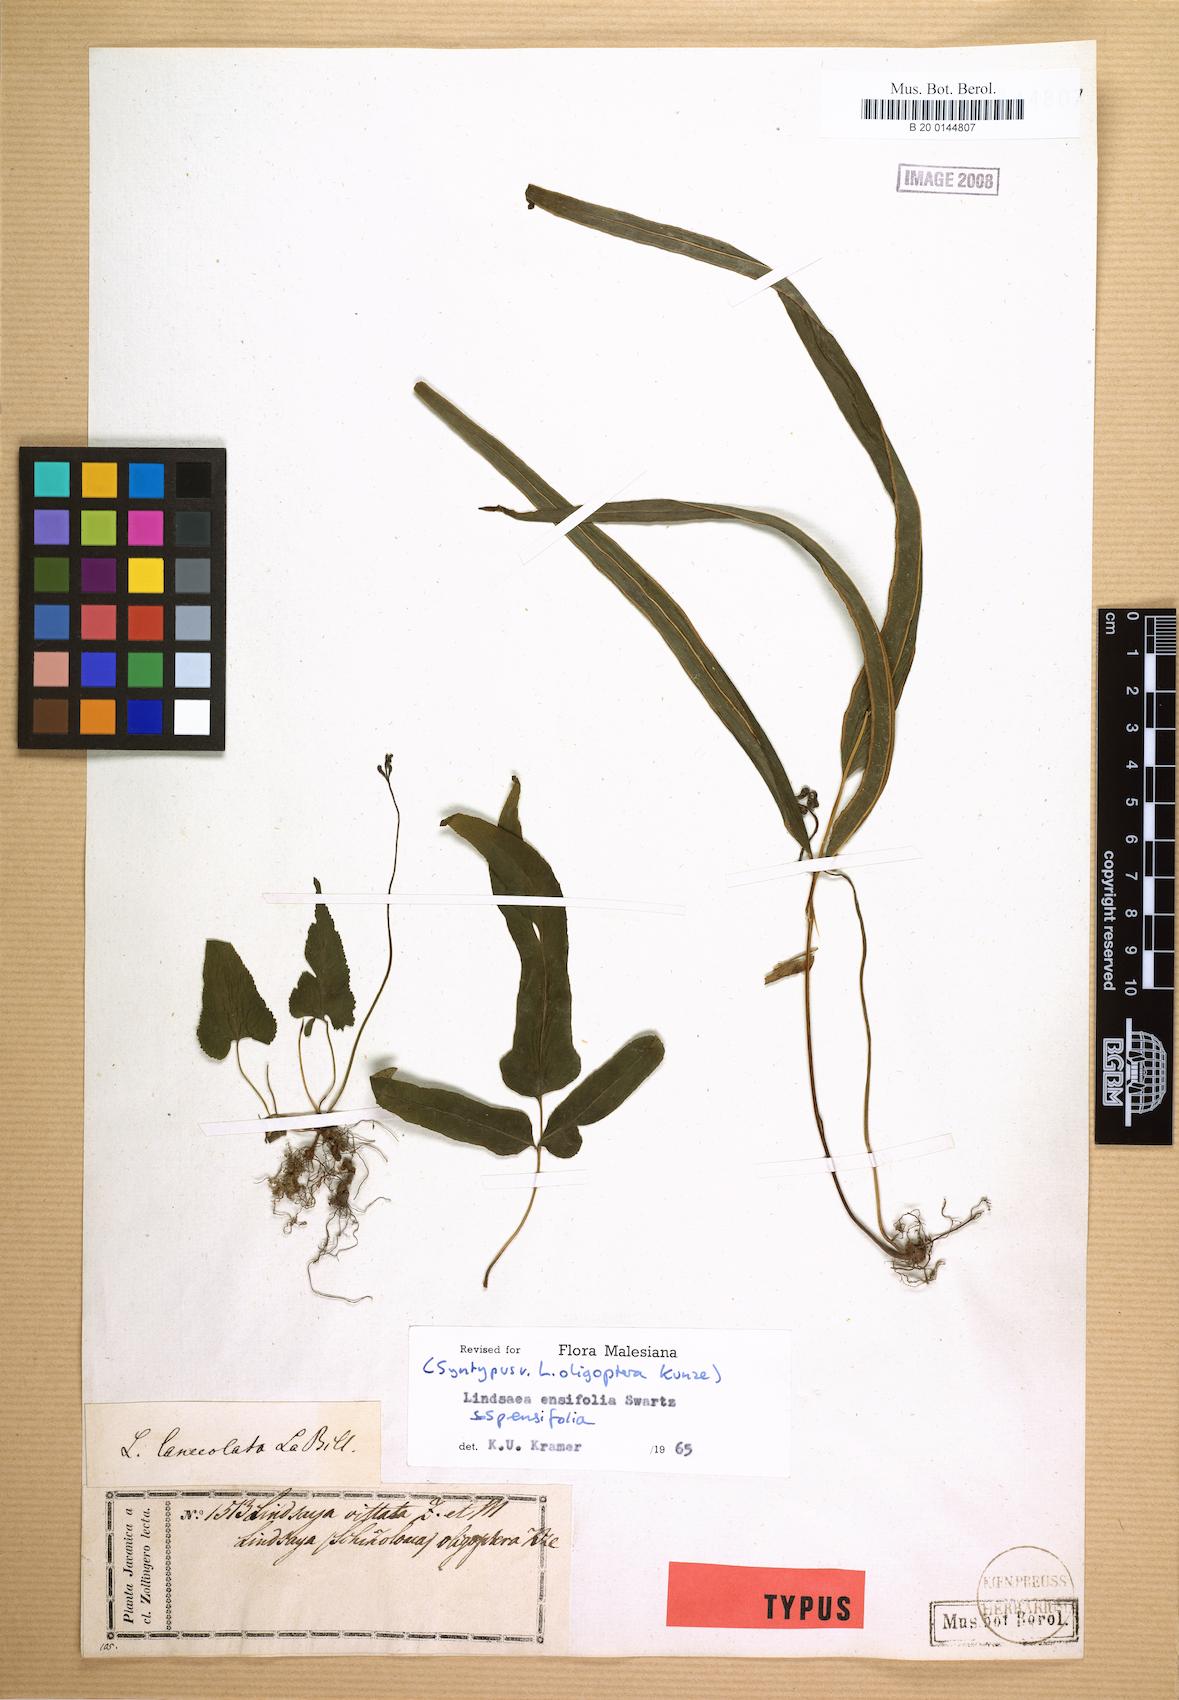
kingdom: Plantae
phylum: Tracheophyta
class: Polypodiopsida
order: Polypodiales
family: Lindsaeaceae
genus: Lindsaea
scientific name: Lindsaea ensifolia
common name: Graceful necklace fern
